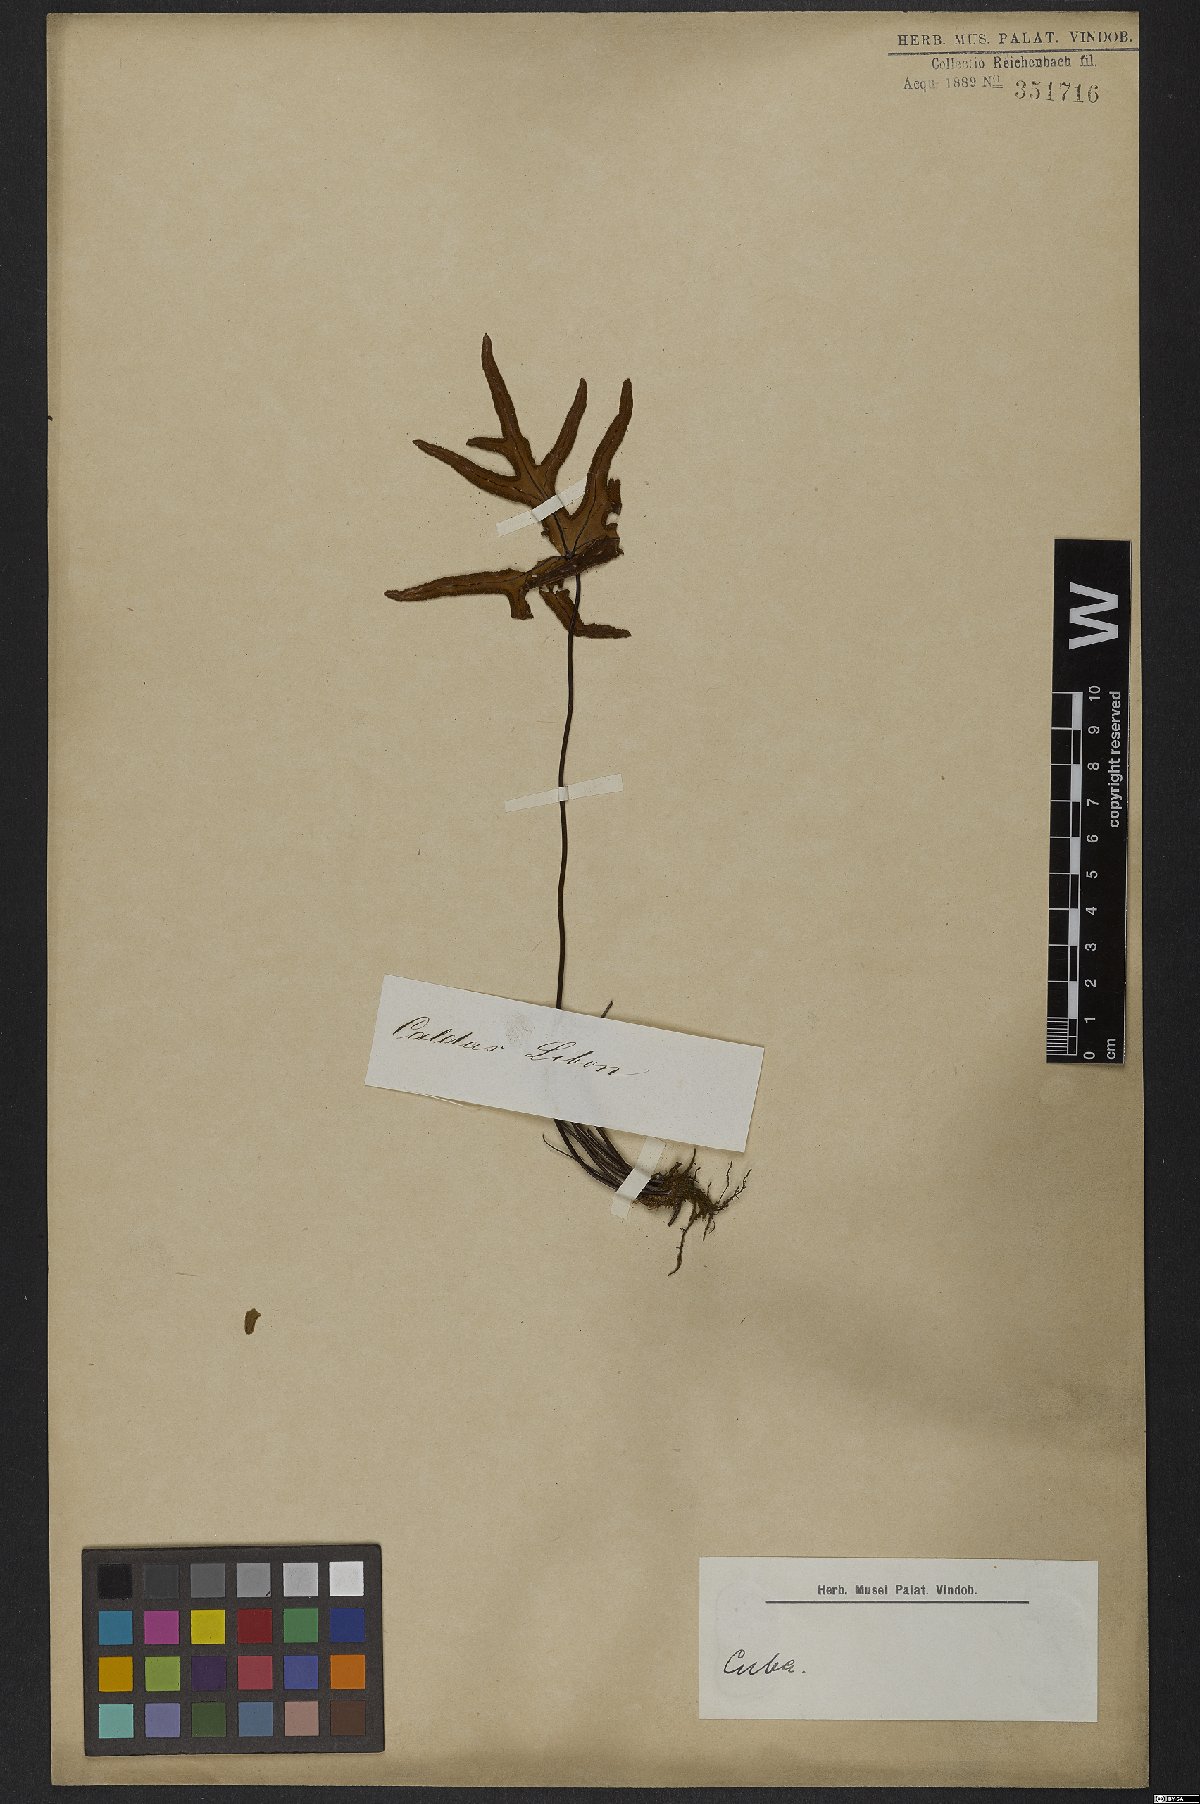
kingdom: Plantae
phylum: Tracheophyta
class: Polypodiopsida
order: Polypodiales
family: Pteridaceae
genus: Doryopteris
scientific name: Doryopteris
